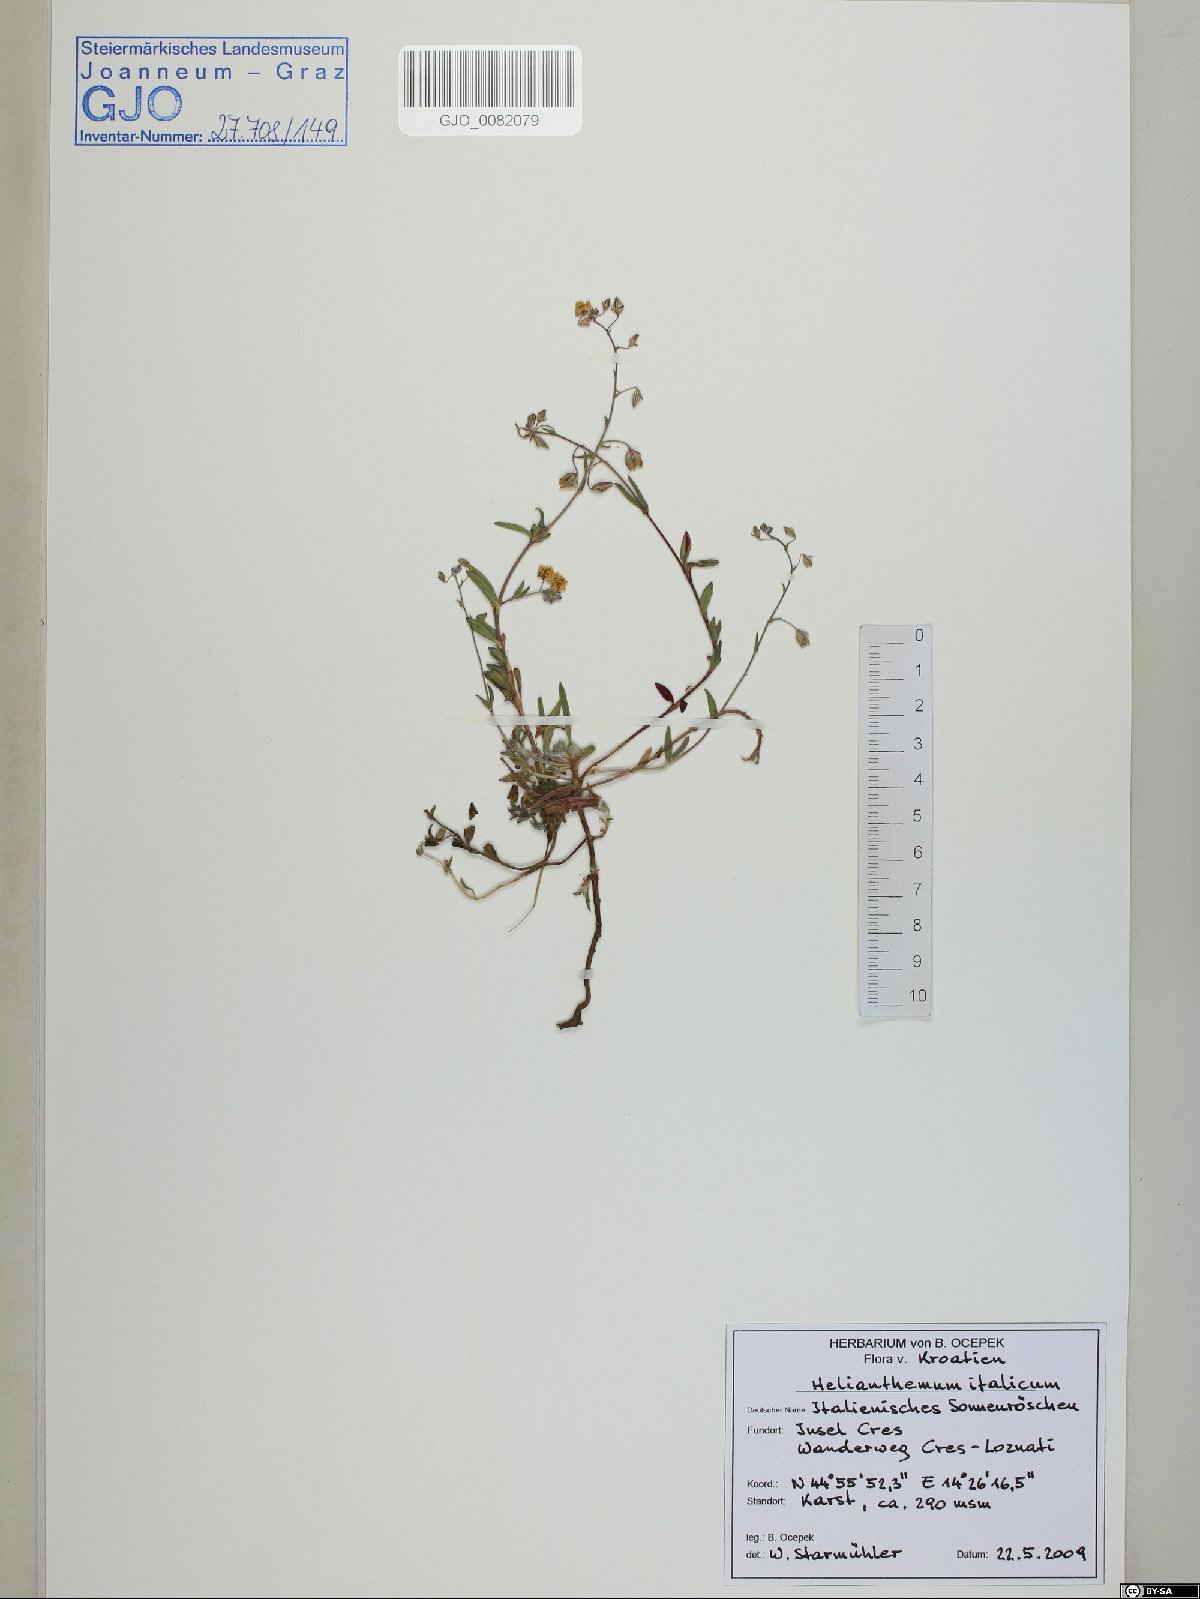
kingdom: Plantae
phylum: Tracheophyta
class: Magnoliopsida
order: Malvales
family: Cistaceae
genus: Helianthemum
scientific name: Helianthemum italicum
